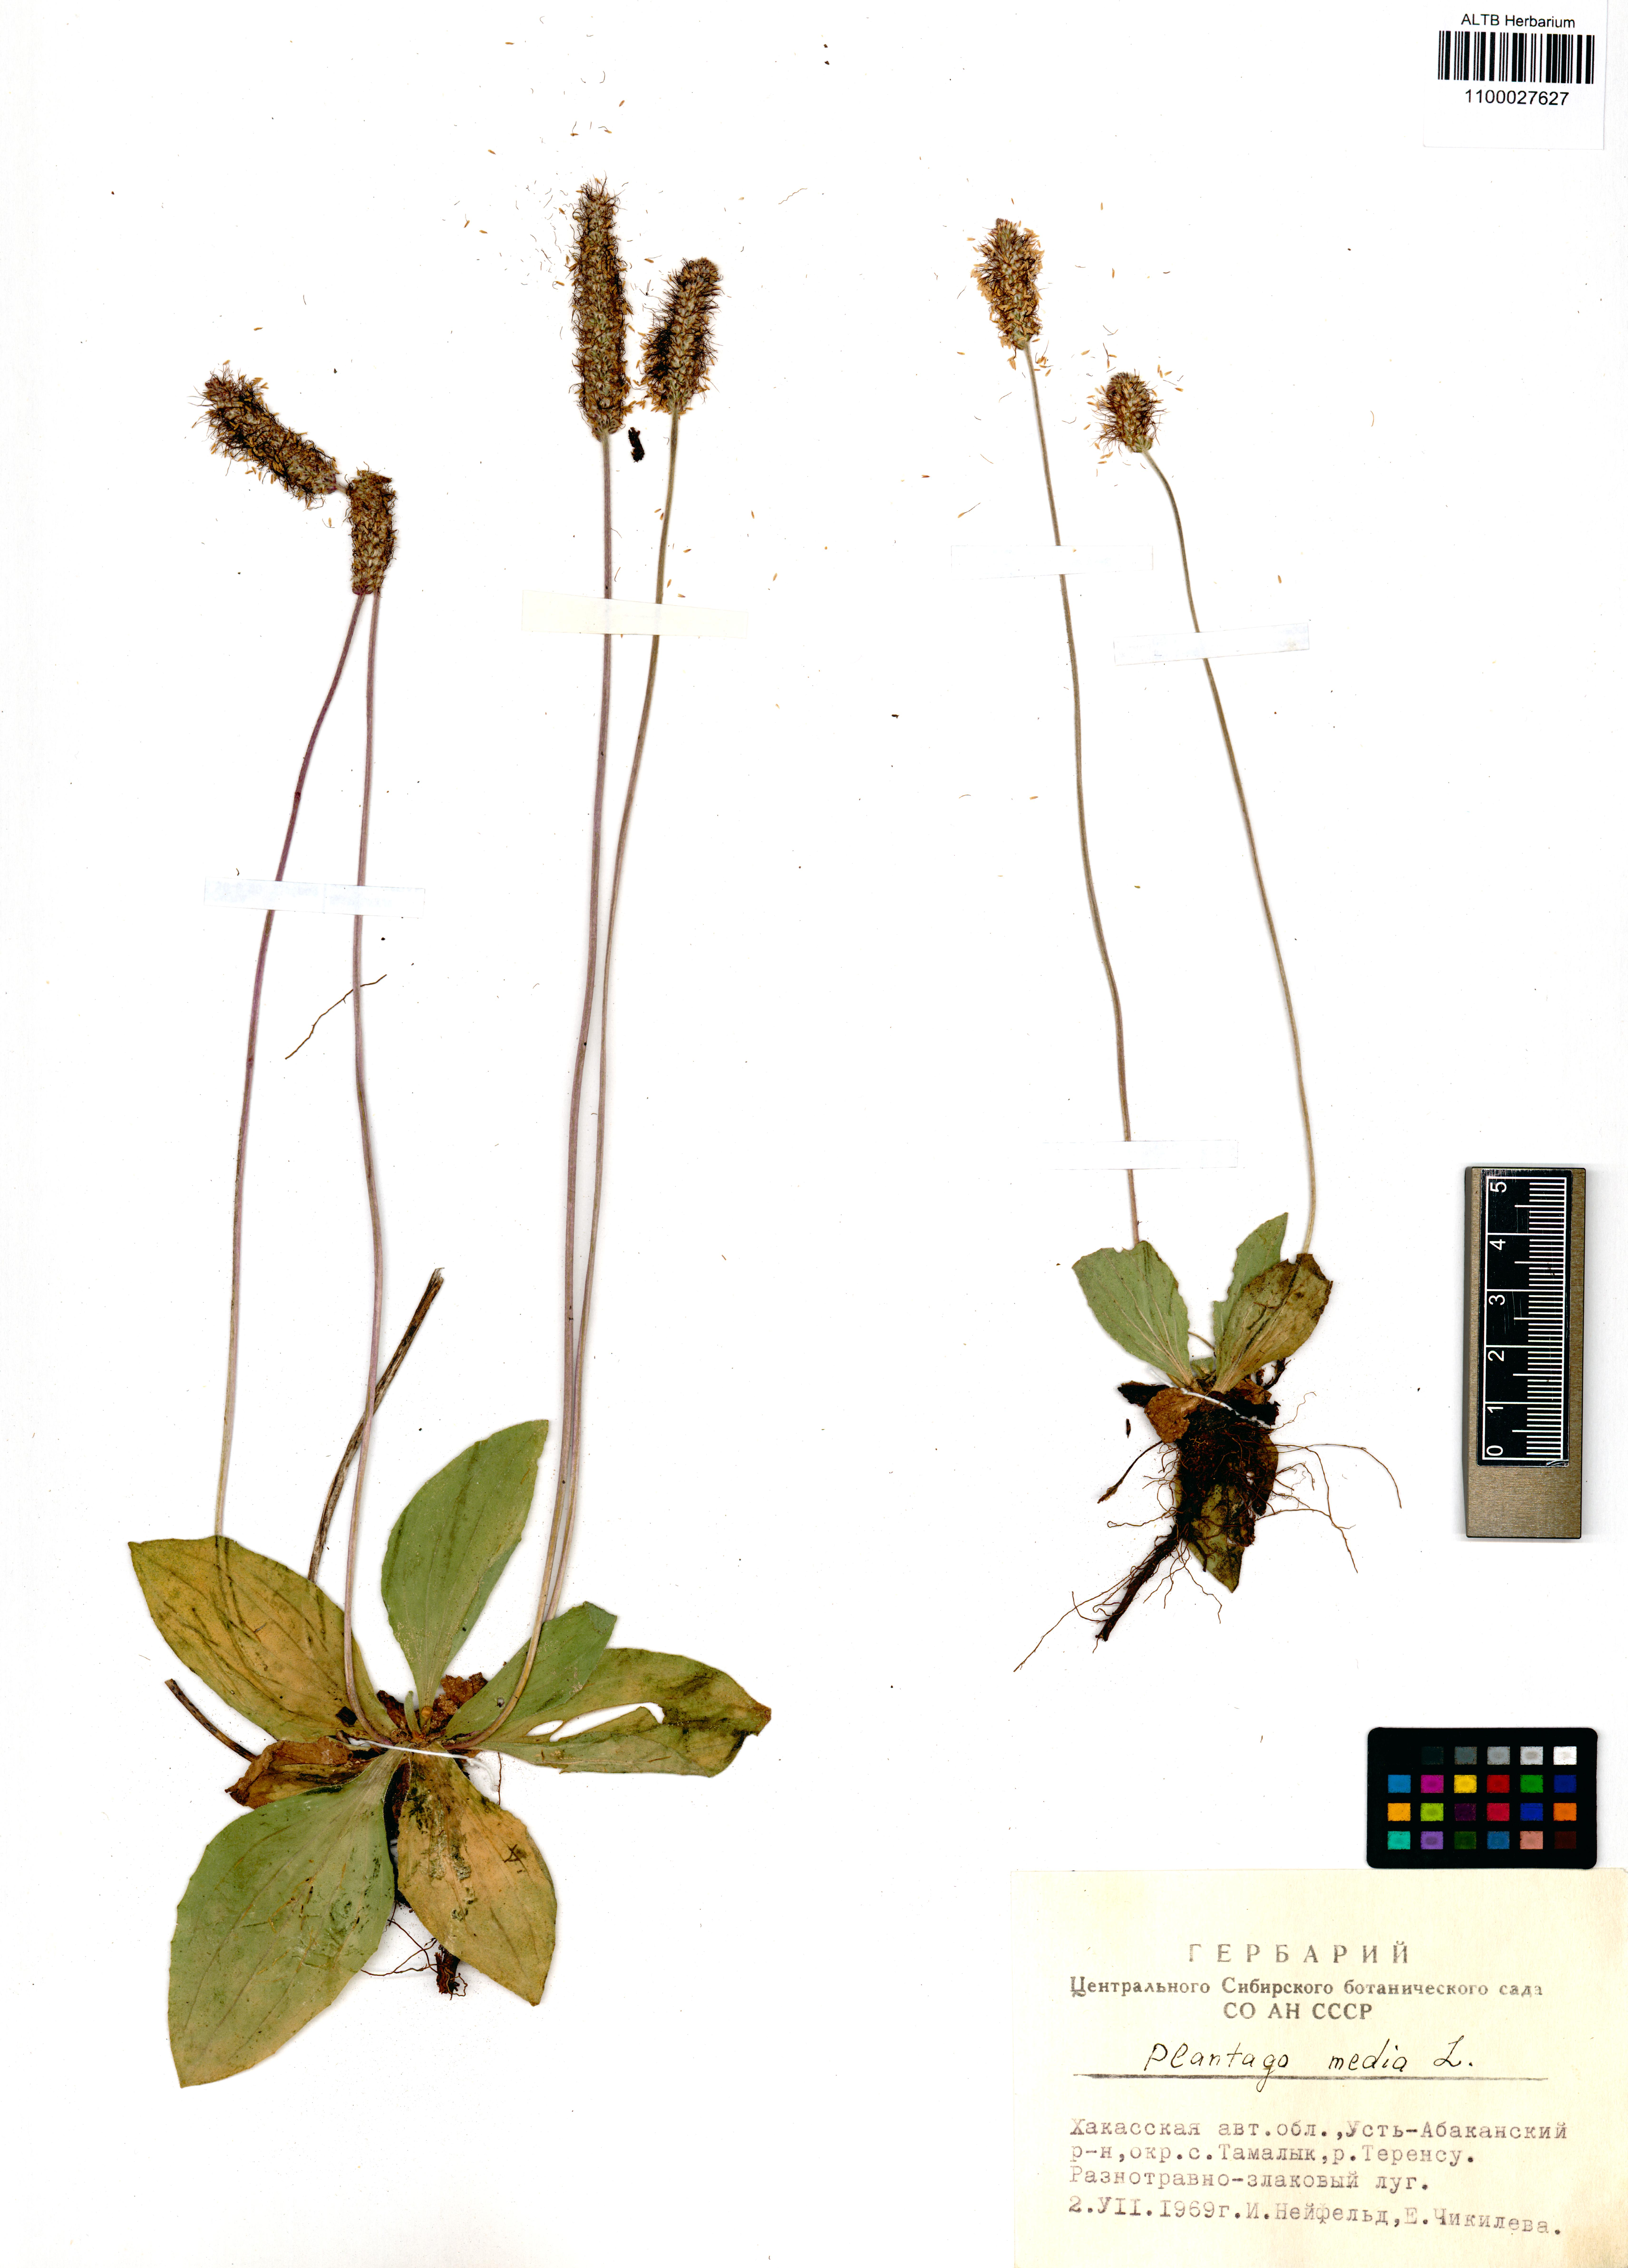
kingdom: Plantae
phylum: Tracheophyta
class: Magnoliopsida
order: Lamiales
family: Plantaginaceae
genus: Plantago
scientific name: Plantago media
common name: Hoary plantain
